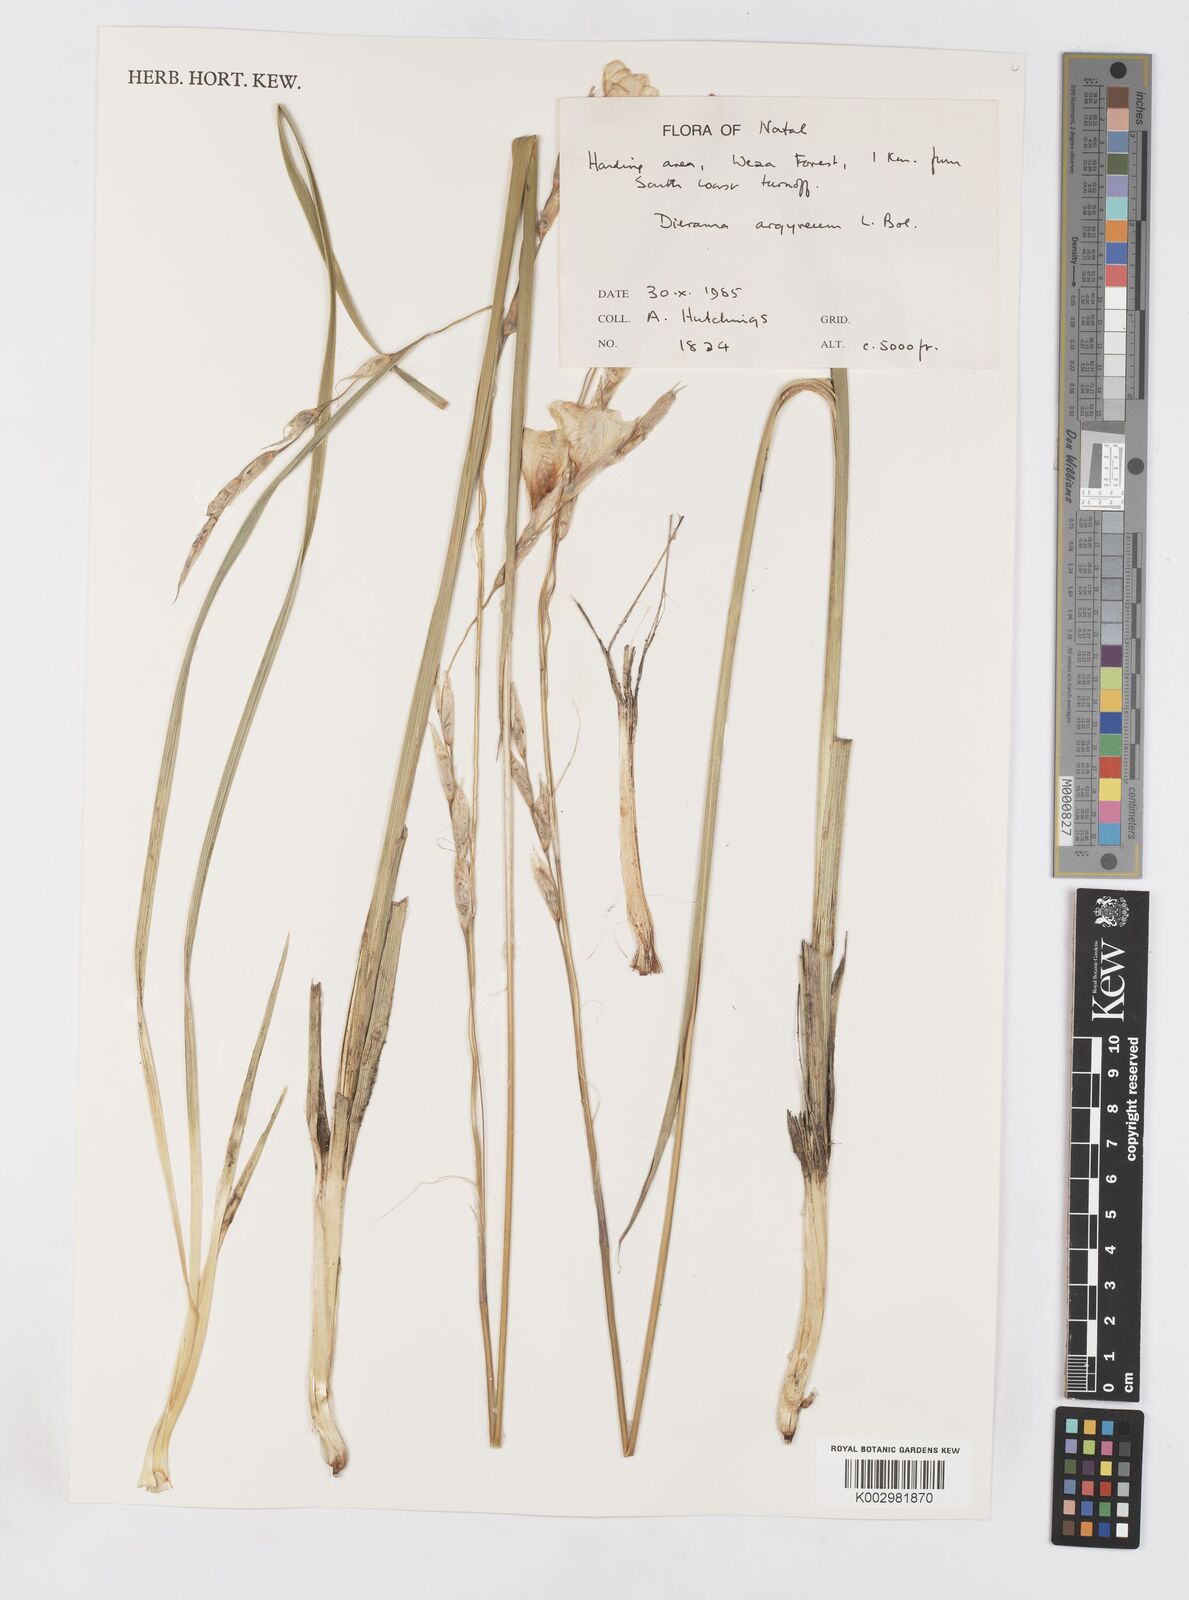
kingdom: Plantae
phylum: Tracheophyta
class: Liliopsida
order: Asparagales
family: Iridaceae
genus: Dierama
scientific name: Dierama argyreum
